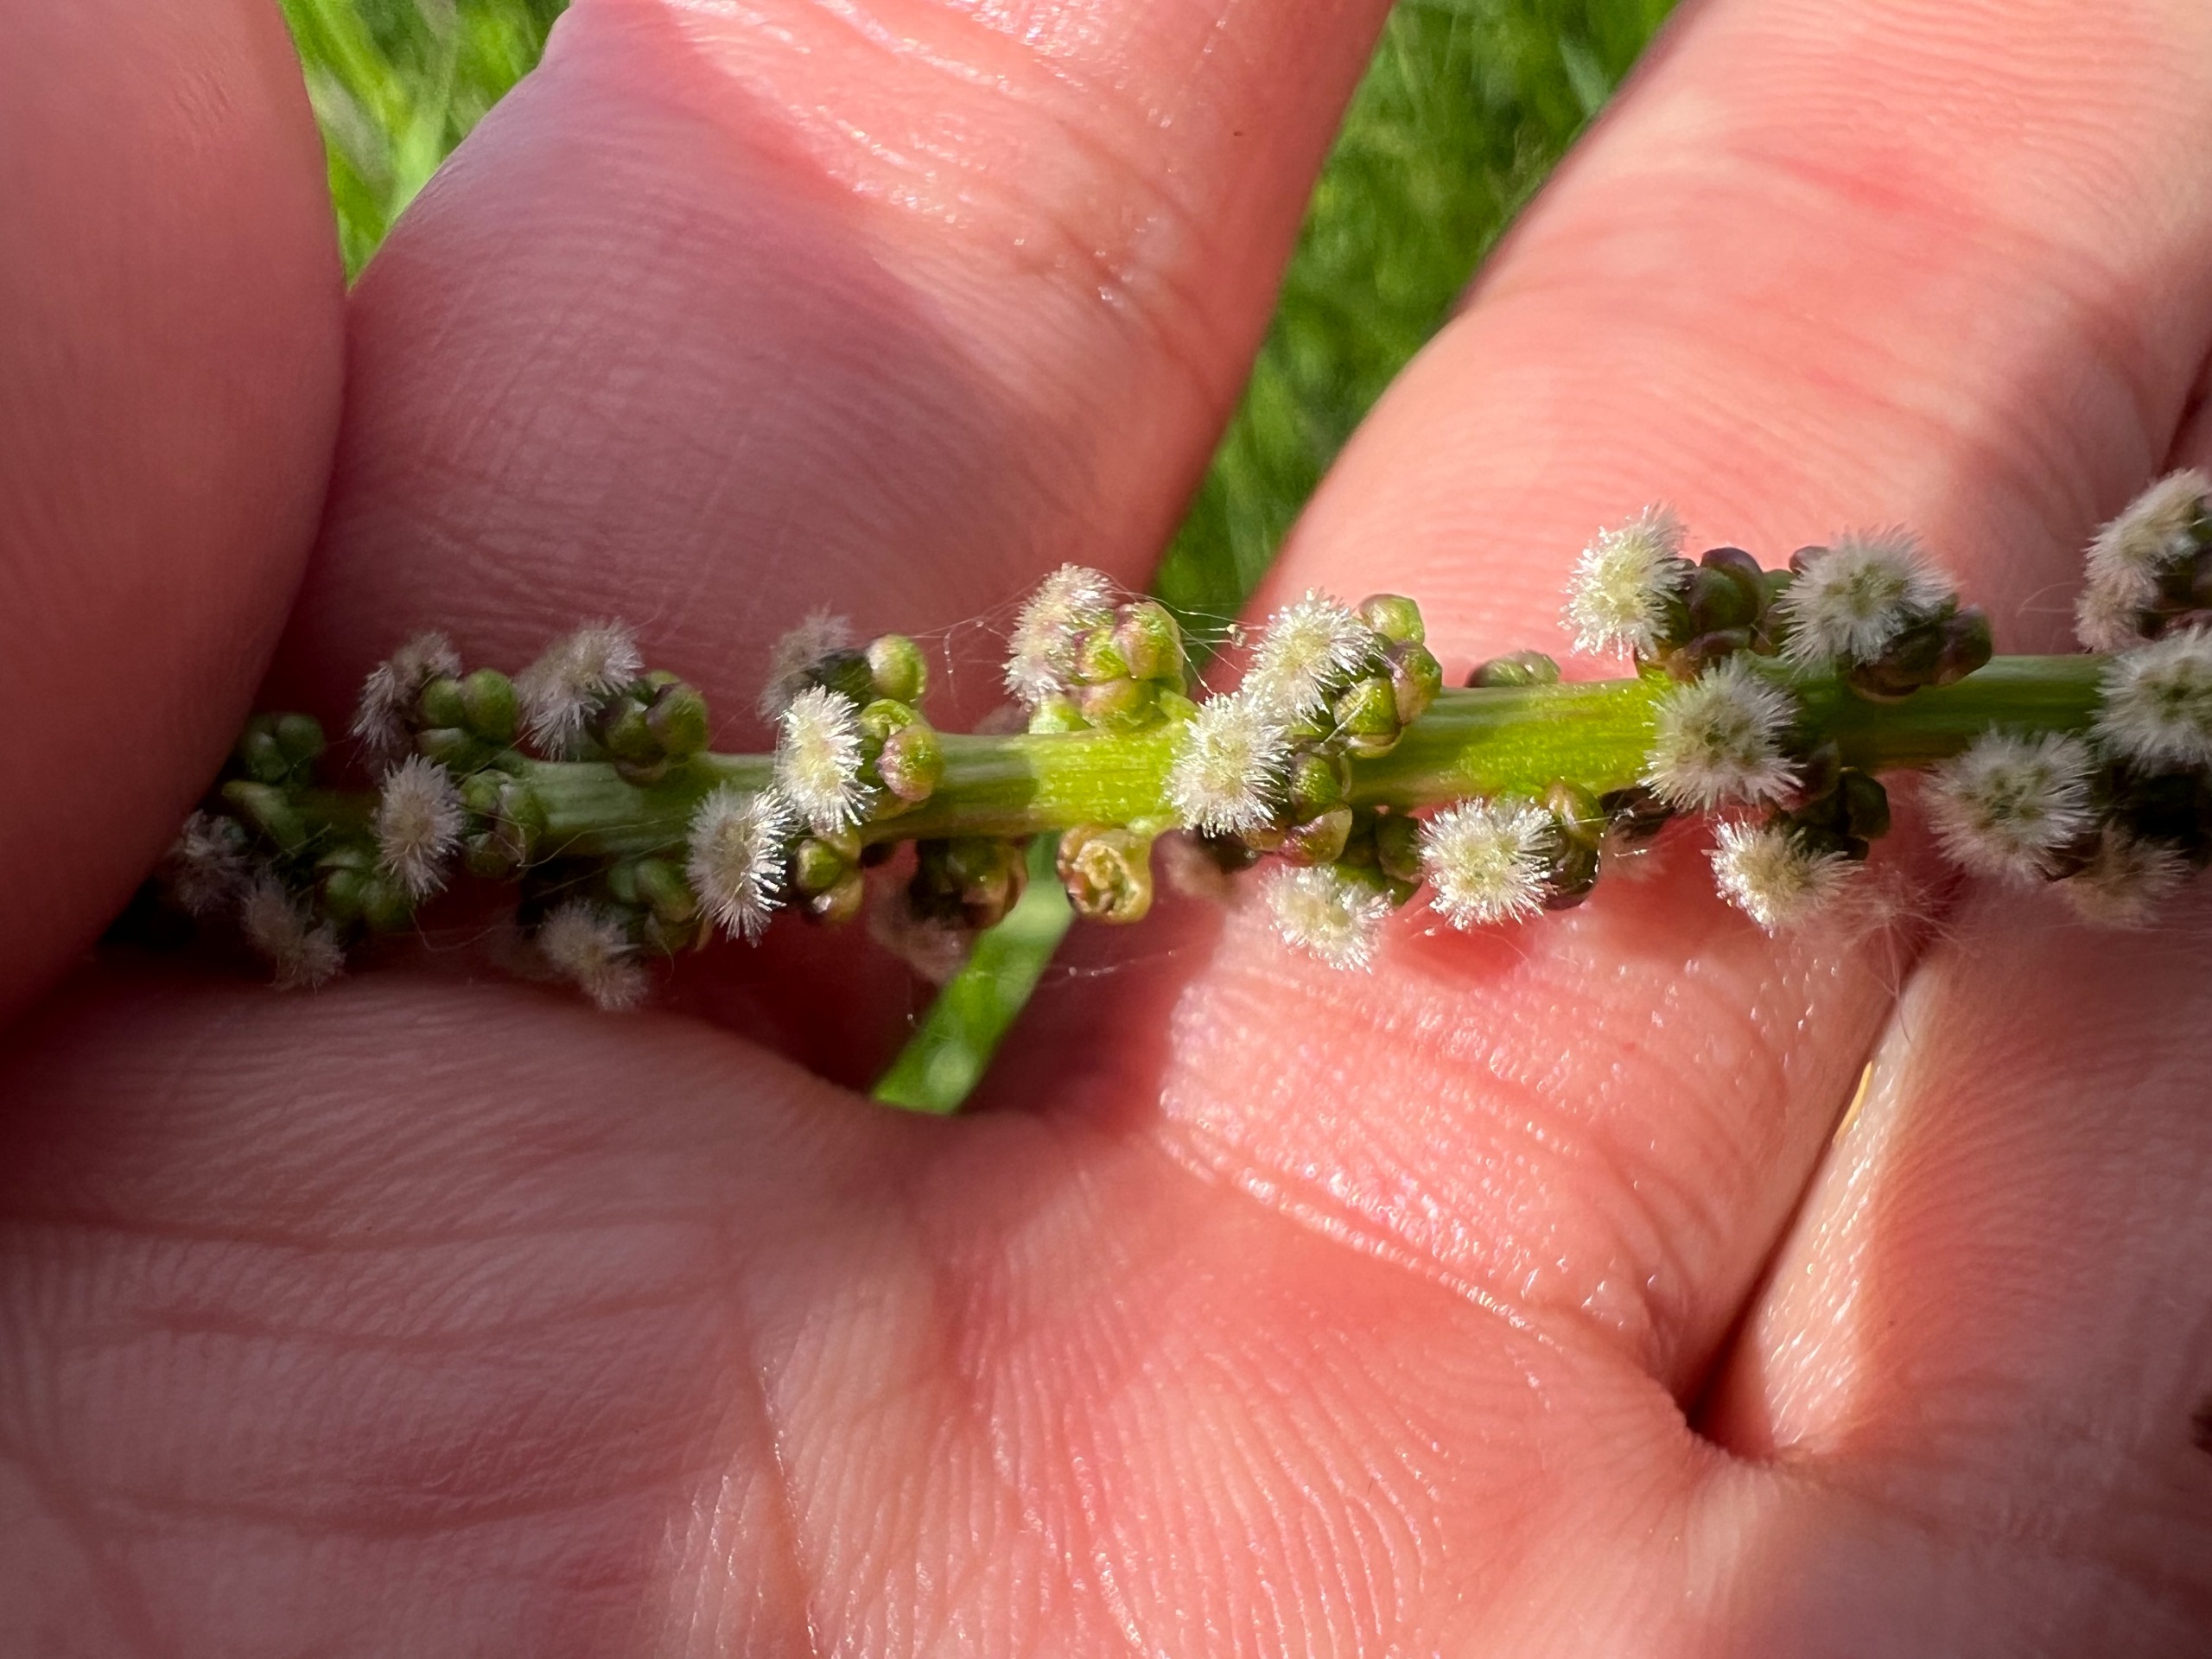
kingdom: Plantae
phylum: Tracheophyta
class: Liliopsida
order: Alismatales
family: Juncaginaceae
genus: Triglochin
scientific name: Triglochin maritima
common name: Strand-trehage
